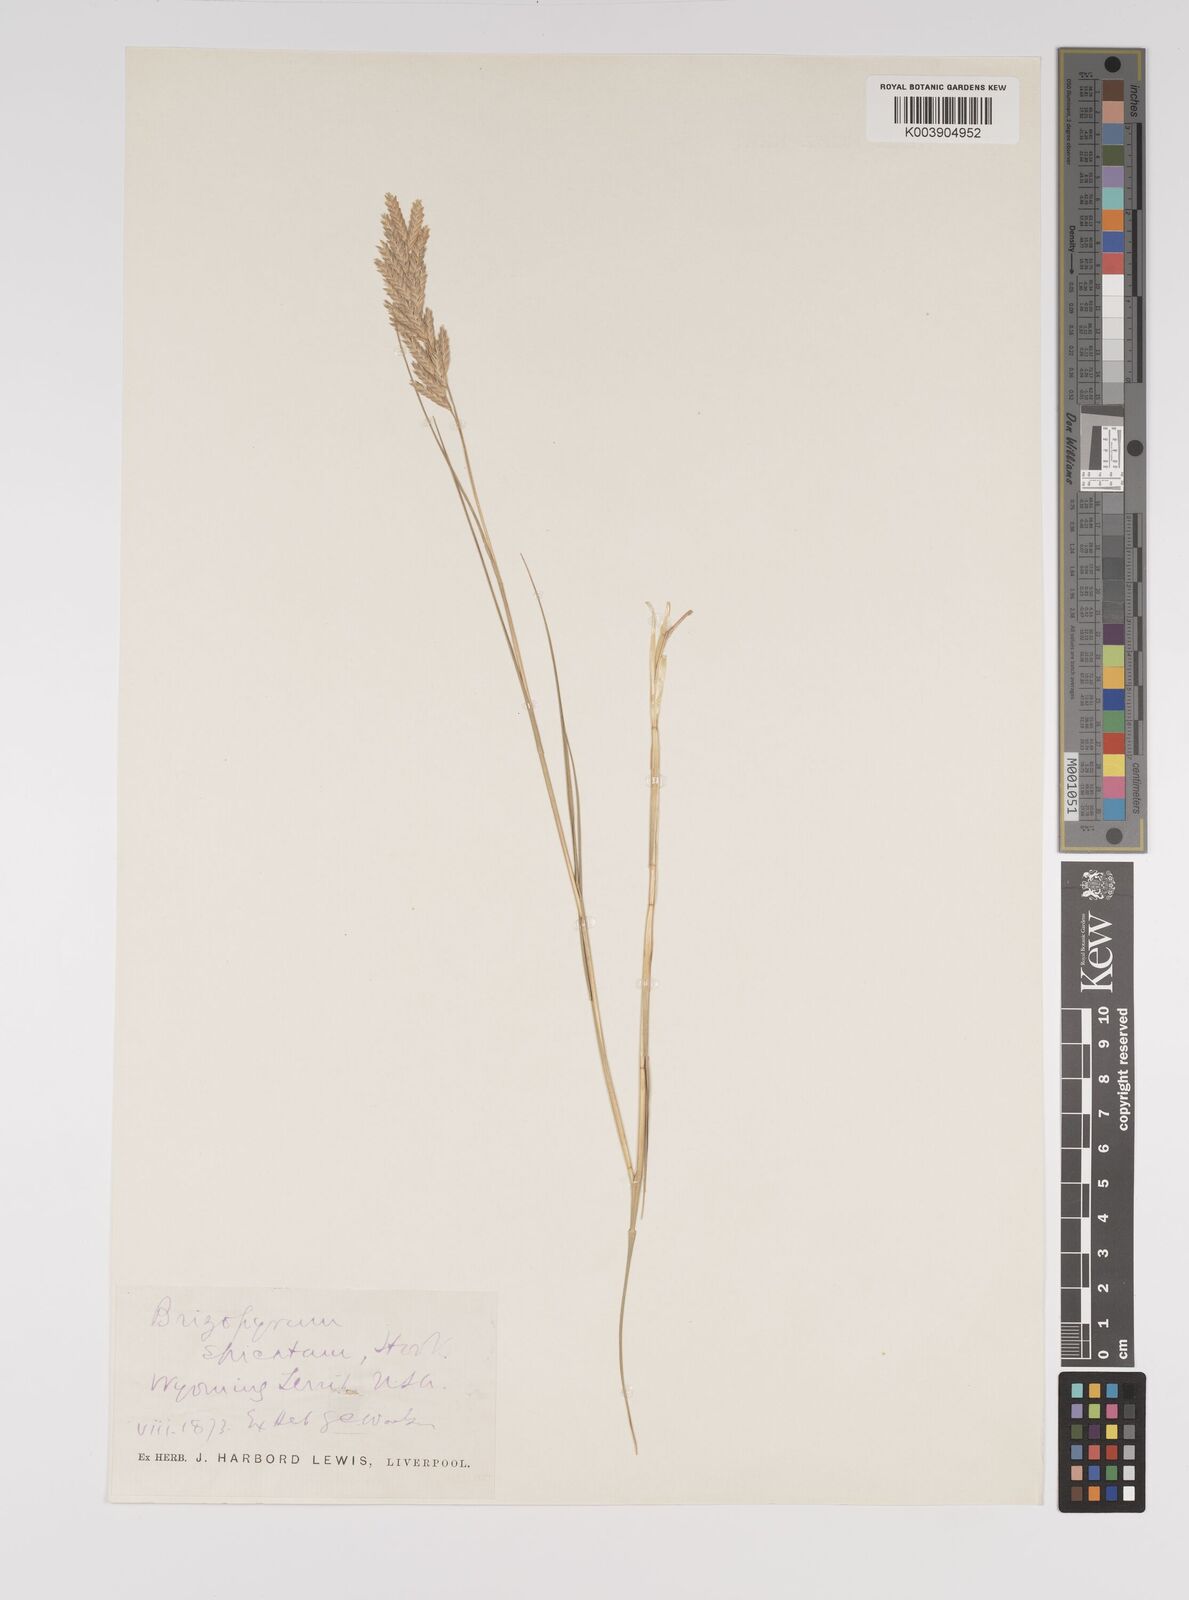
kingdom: Plantae
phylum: Tracheophyta
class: Liliopsida
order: Poales
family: Poaceae
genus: Distichlis
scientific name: Distichlis spicata
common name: Saltgrass
